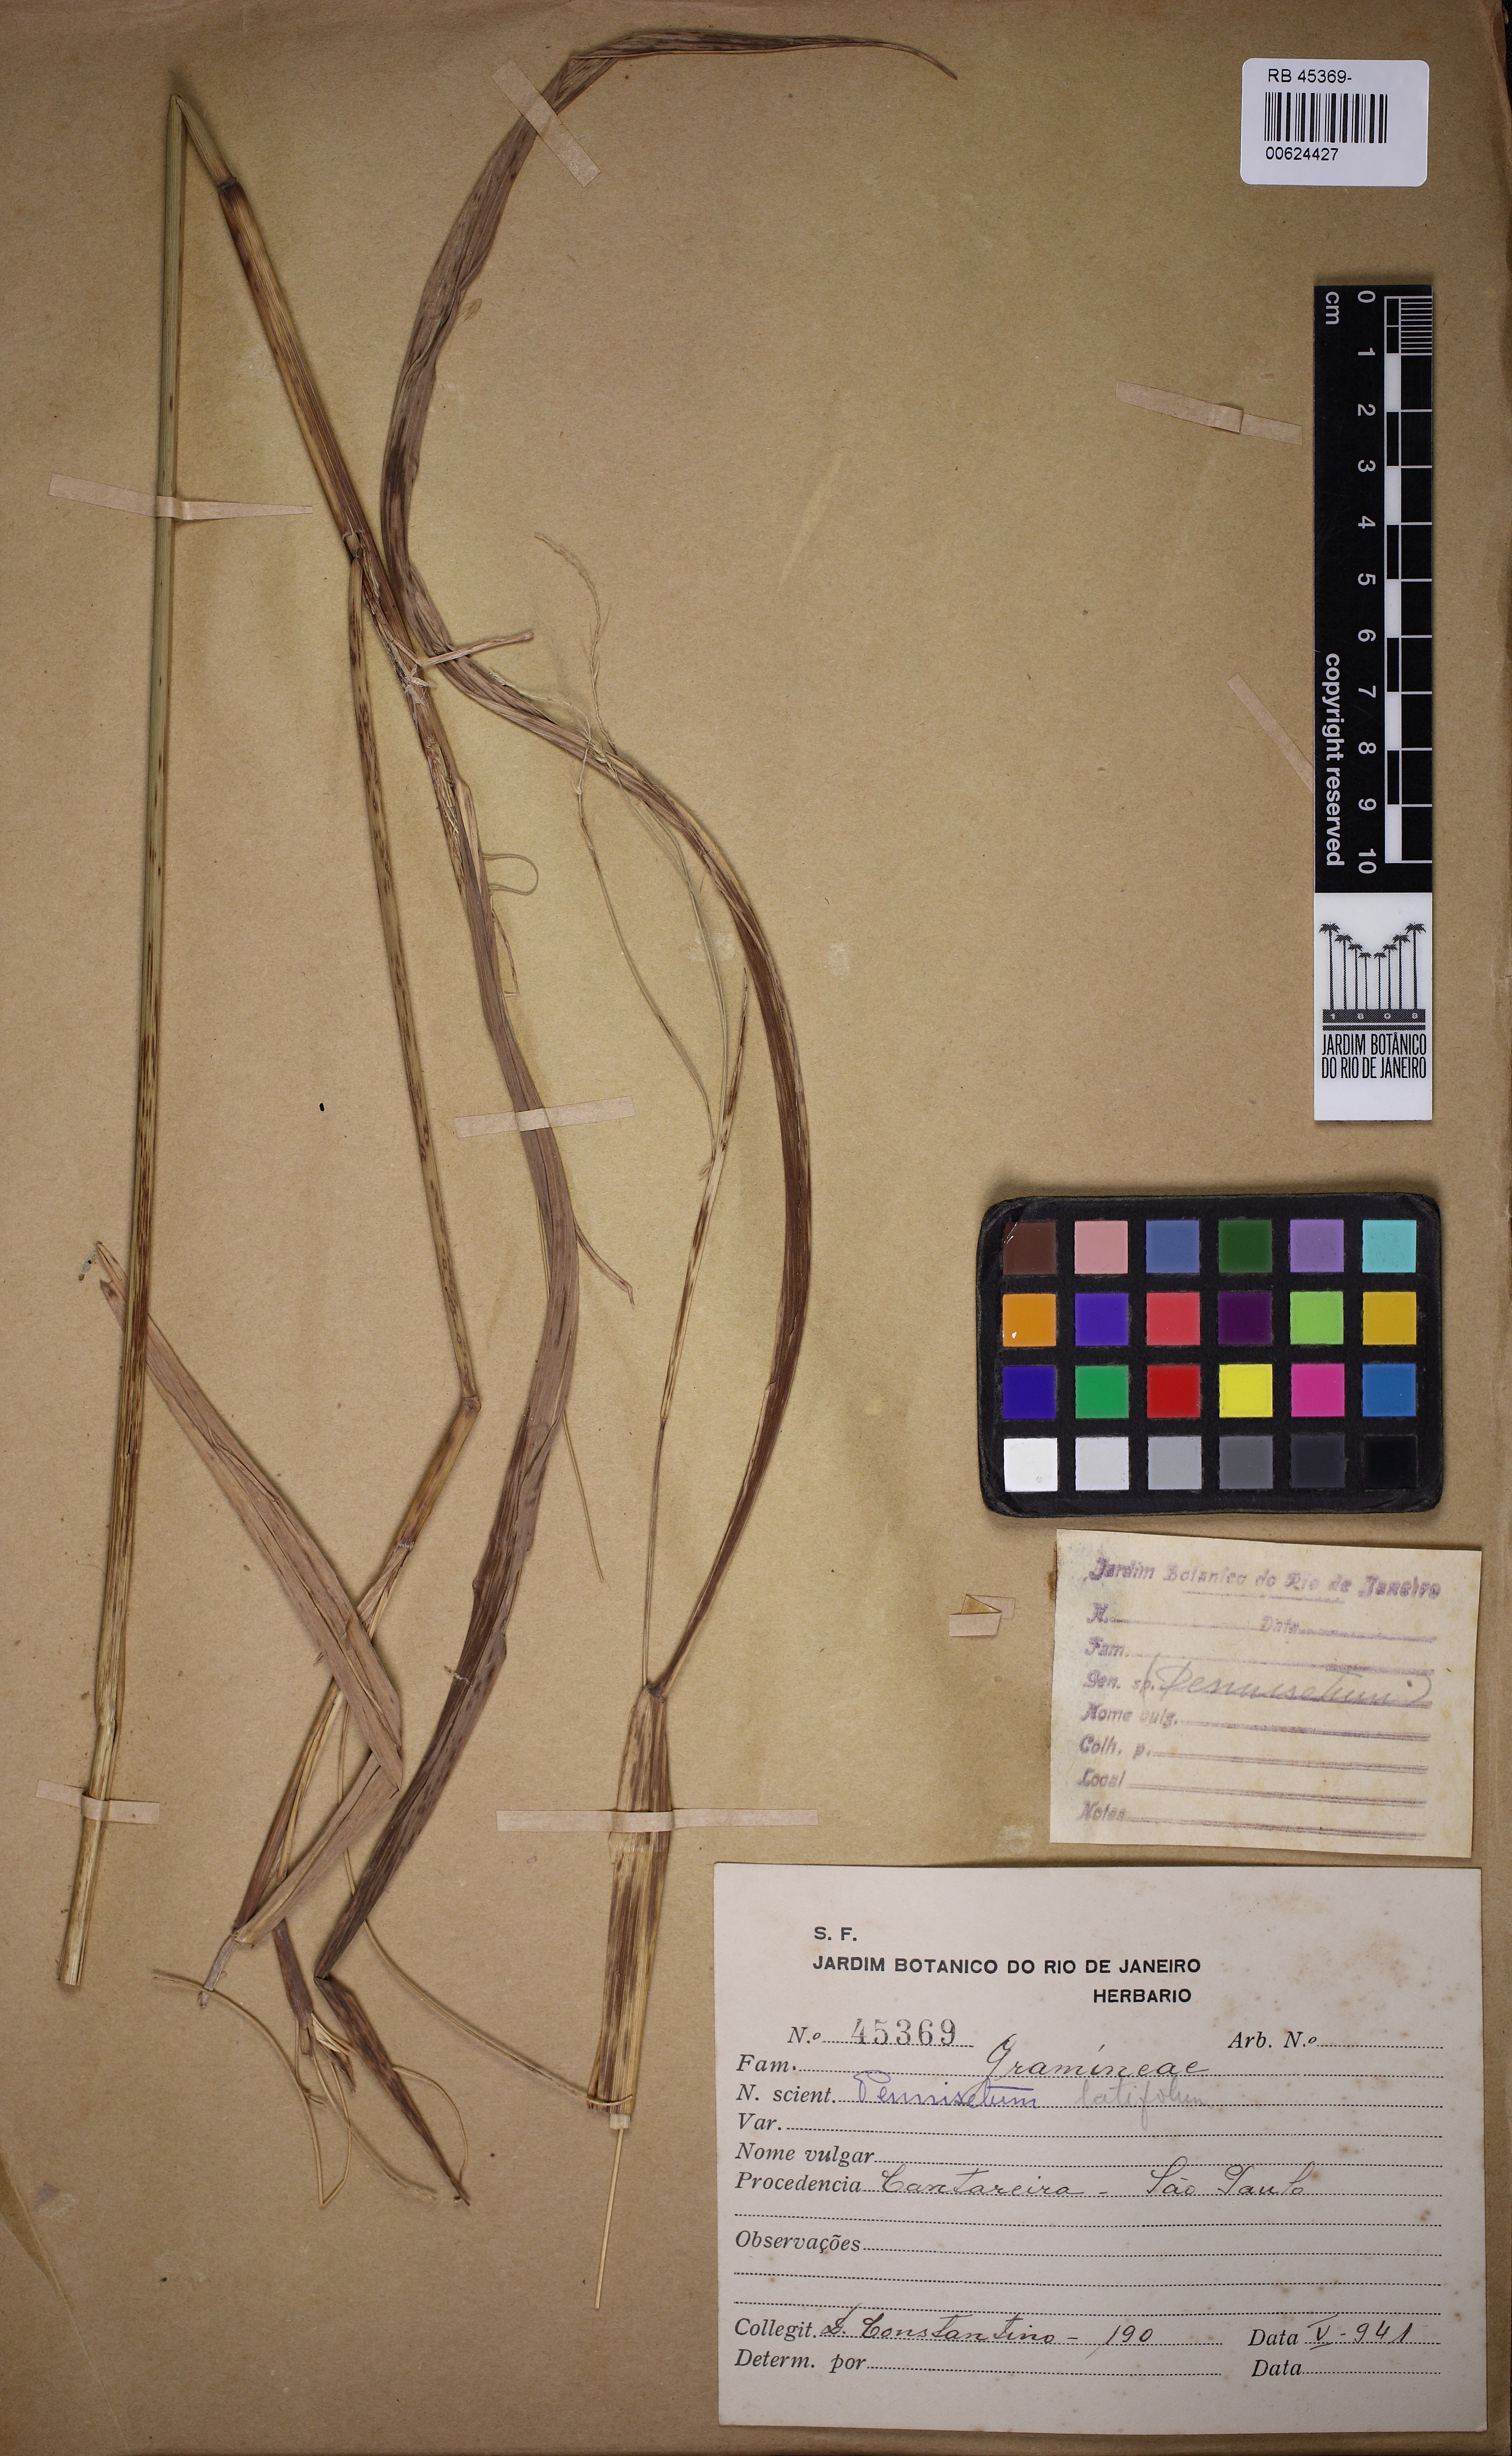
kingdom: Plantae
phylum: Tracheophyta
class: Liliopsida
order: Poales
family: Poaceae
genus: Cenchrus
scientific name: Cenchrus latifolius
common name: Sandbur
